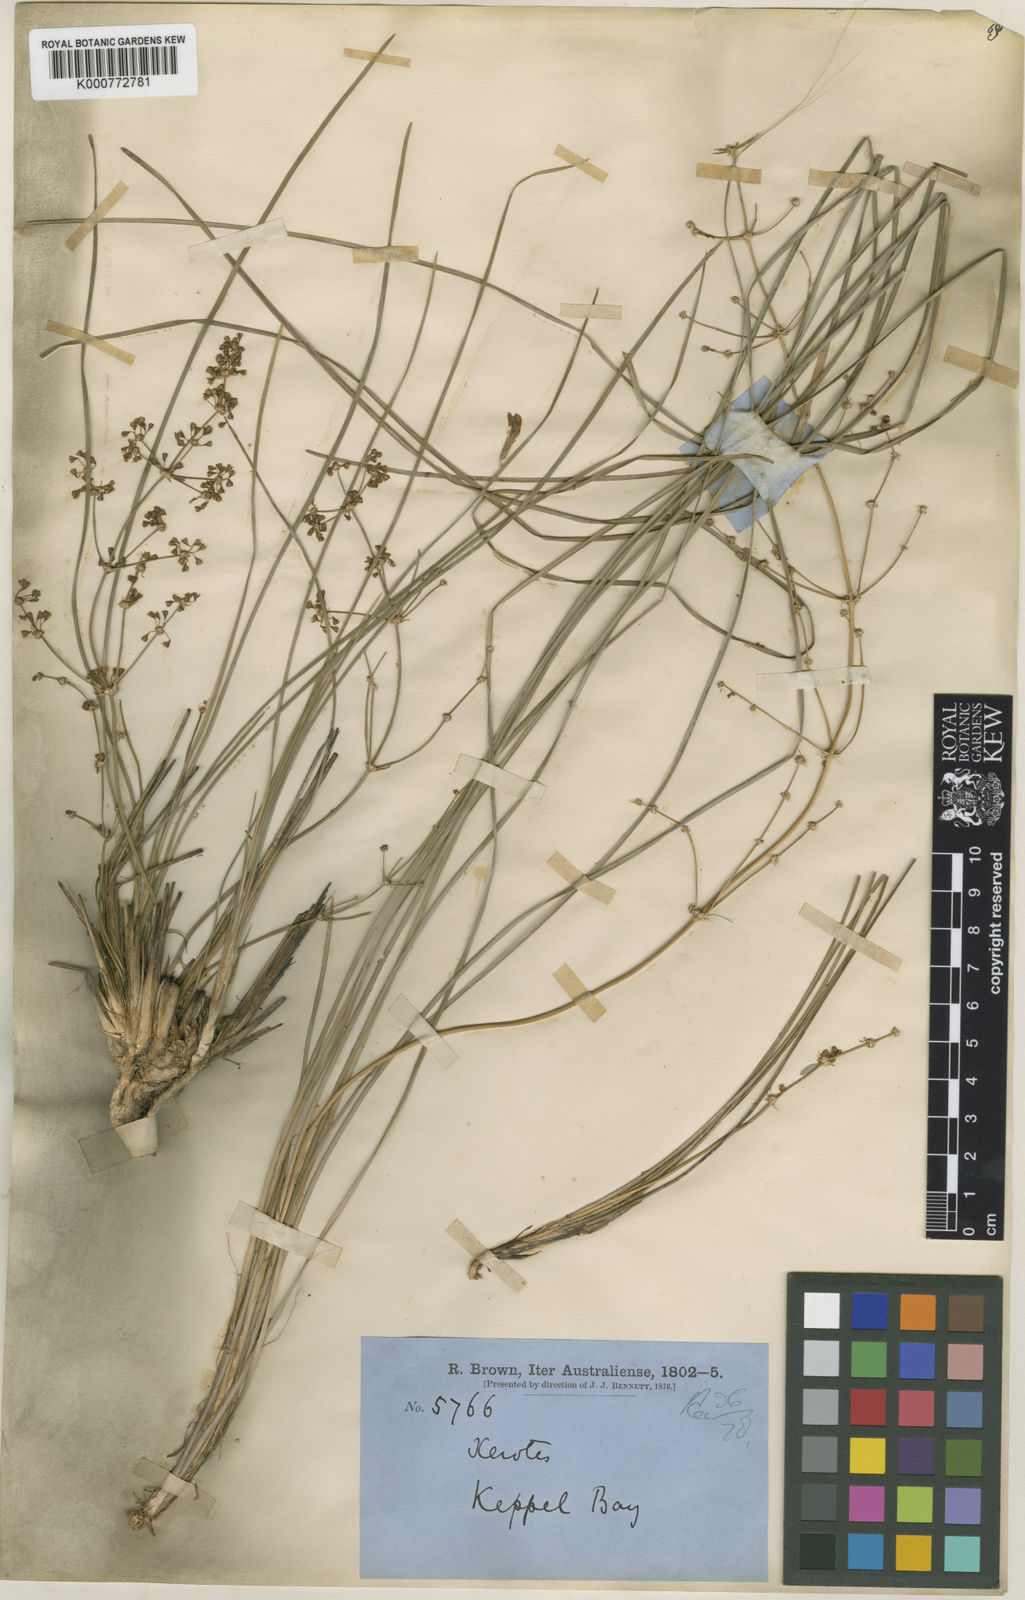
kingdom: Plantae
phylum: Tracheophyta
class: Liliopsida
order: Asparagales
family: Asparagaceae
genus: Lomandra
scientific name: Lomandra multiflora
